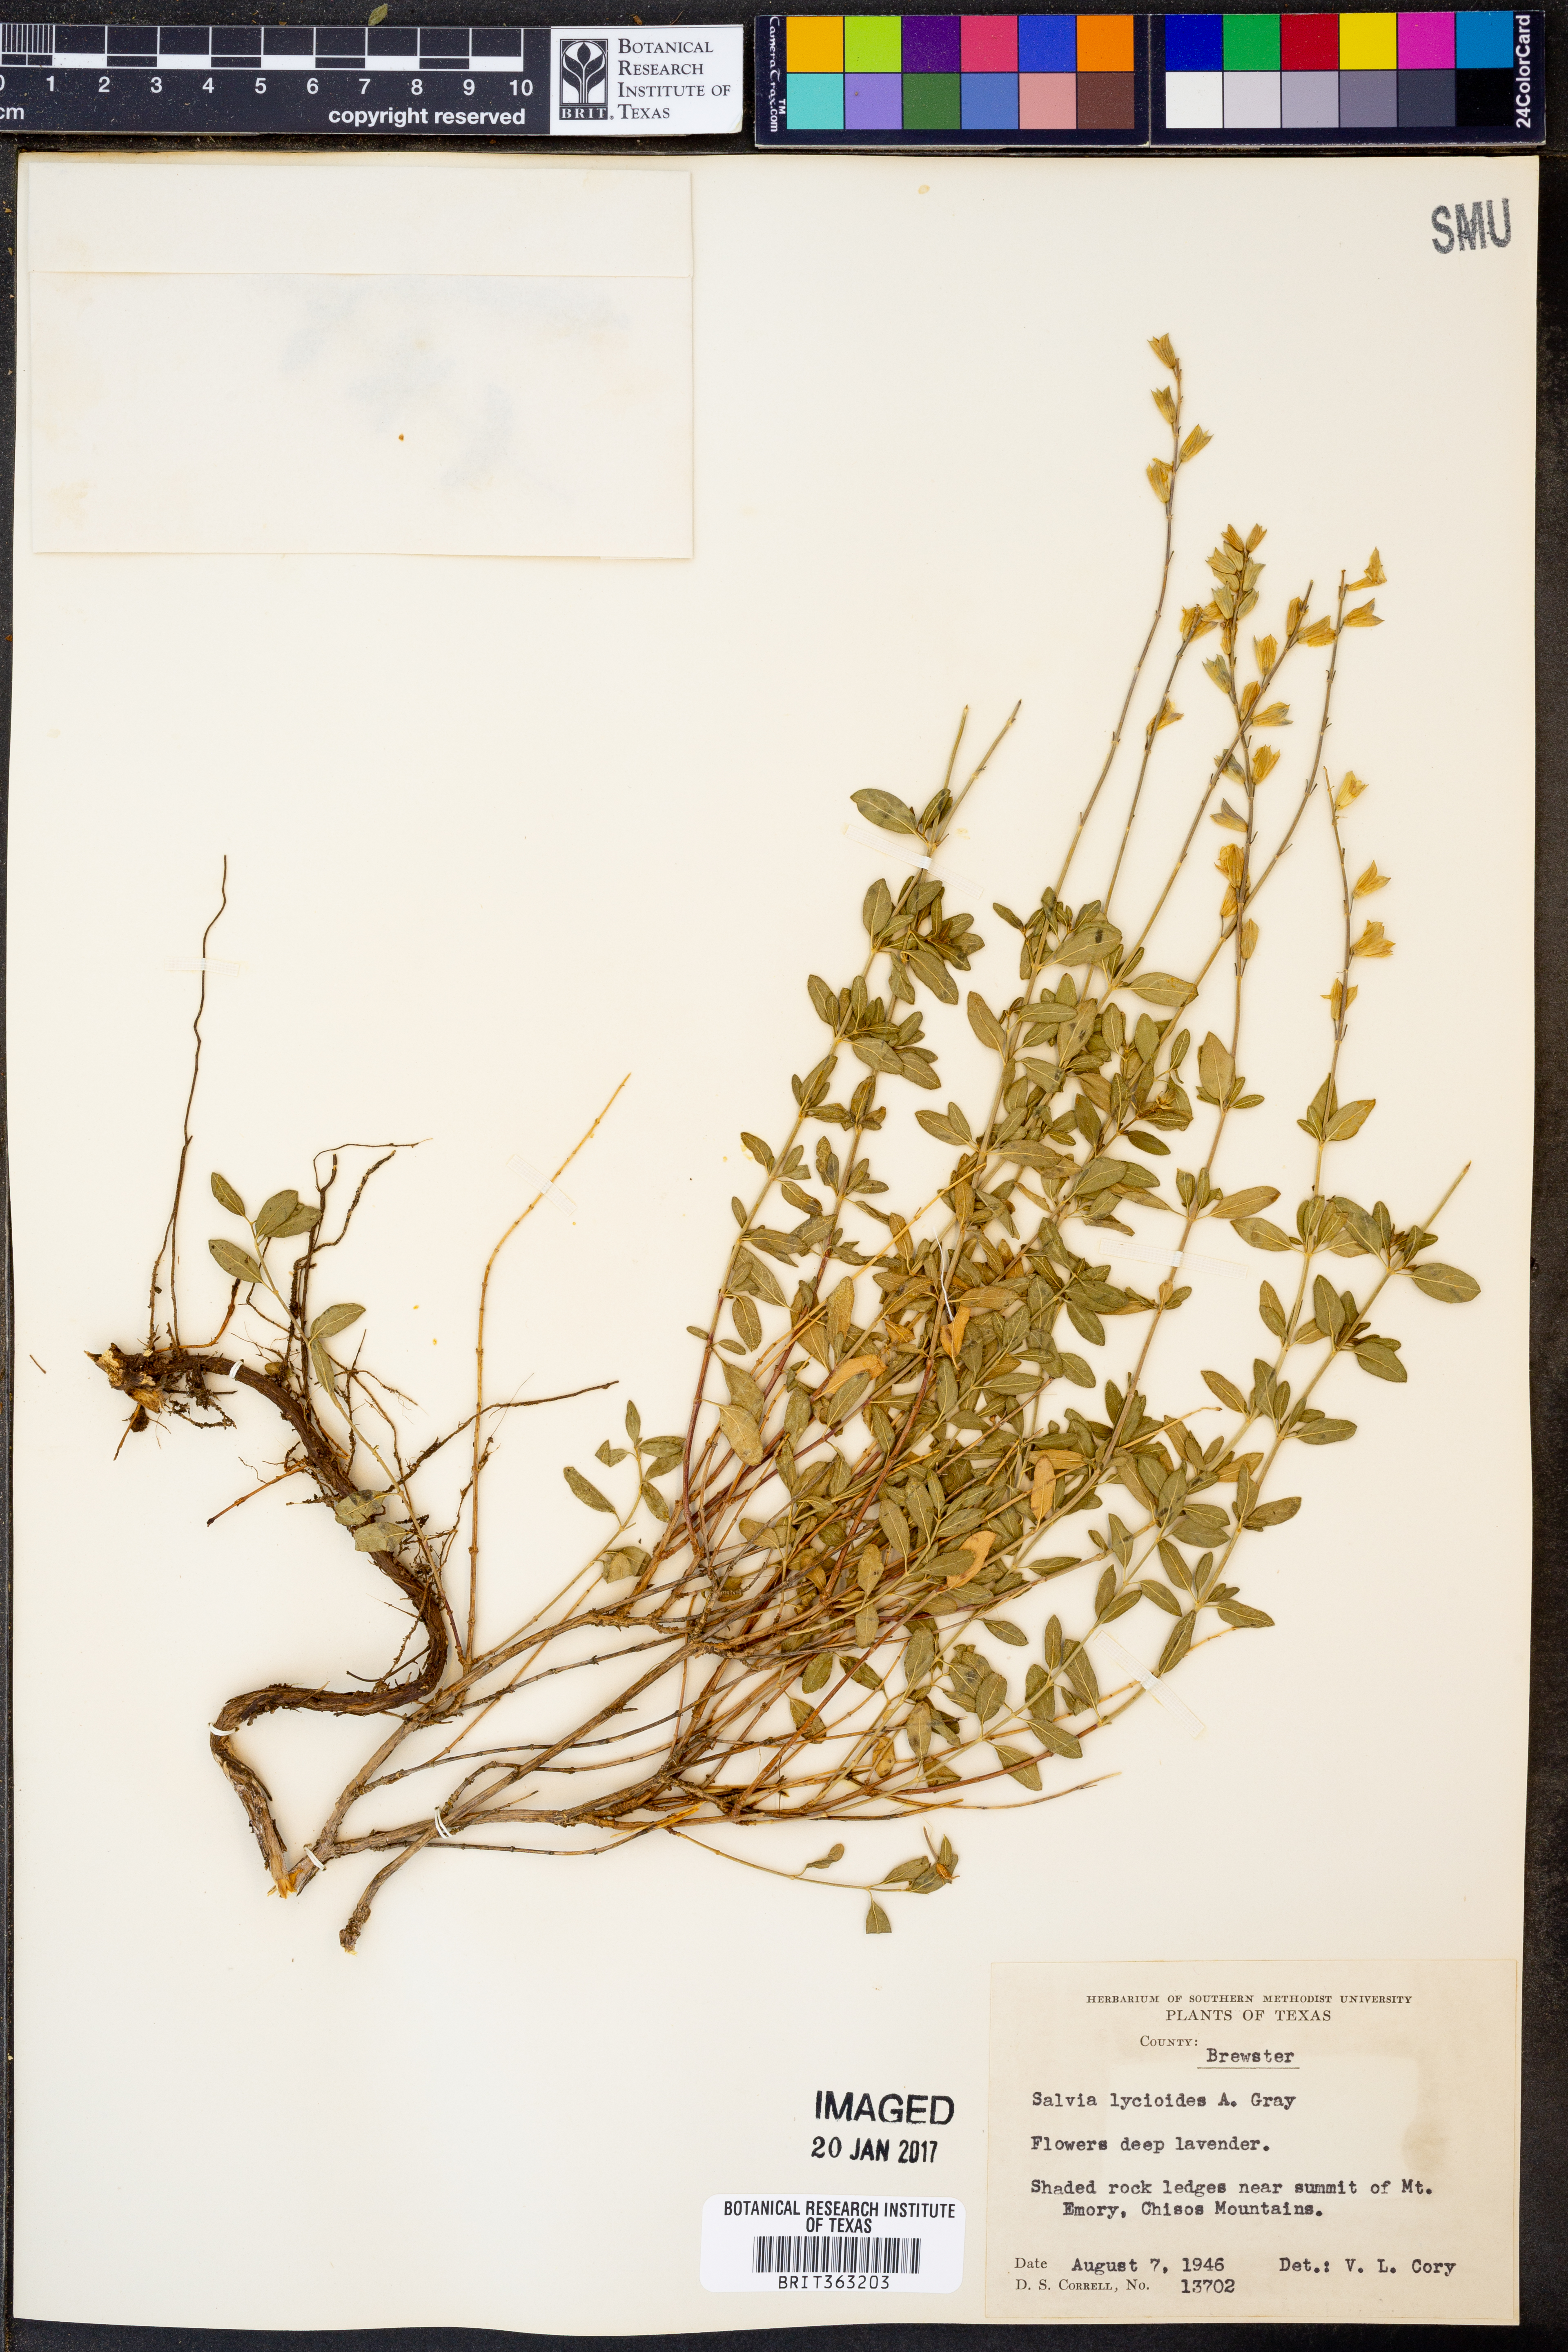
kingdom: Plantae
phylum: Tracheophyta
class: Magnoliopsida
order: Lamiales
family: Lamiaceae
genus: Salvia
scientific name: Salvia lycioides
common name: Canyon sage
